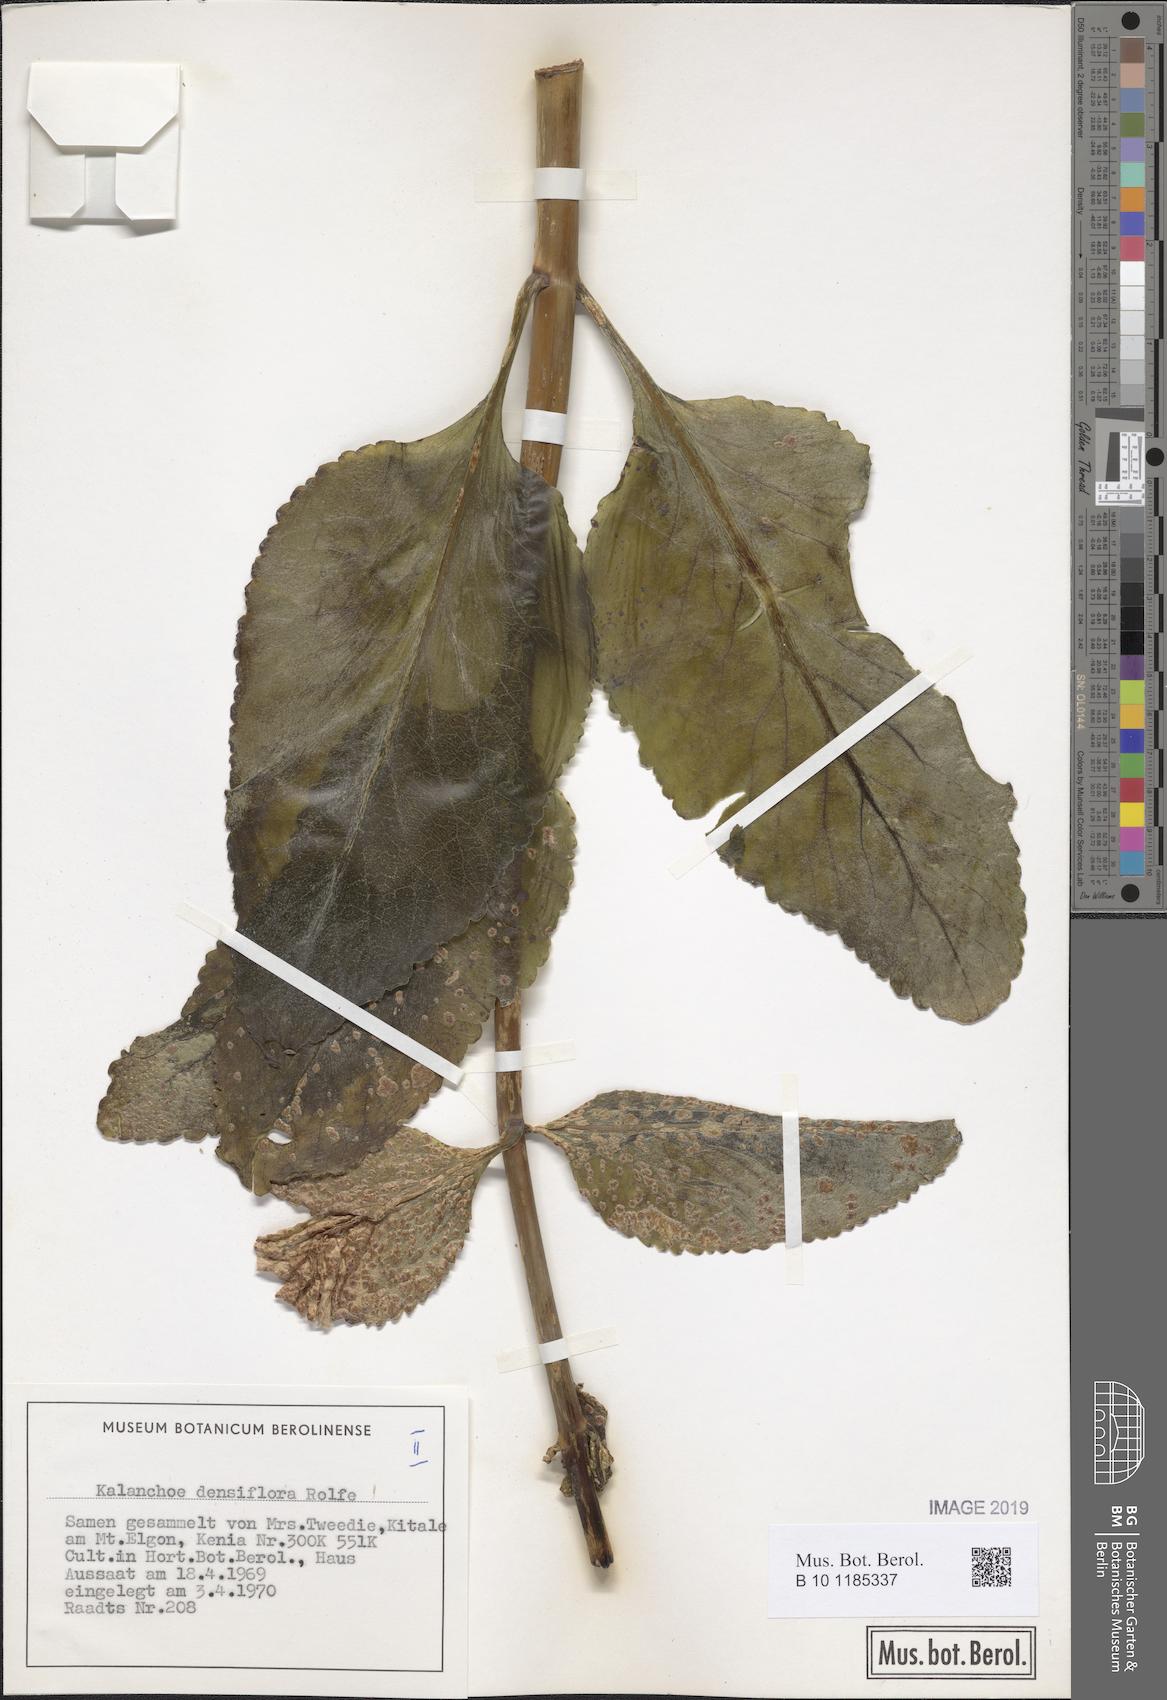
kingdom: Plantae
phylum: Tracheophyta
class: Magnoliopsida
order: Saxifragales
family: Crassulaceae
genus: Kalanchoe
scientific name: Kalanchoe densiflora
